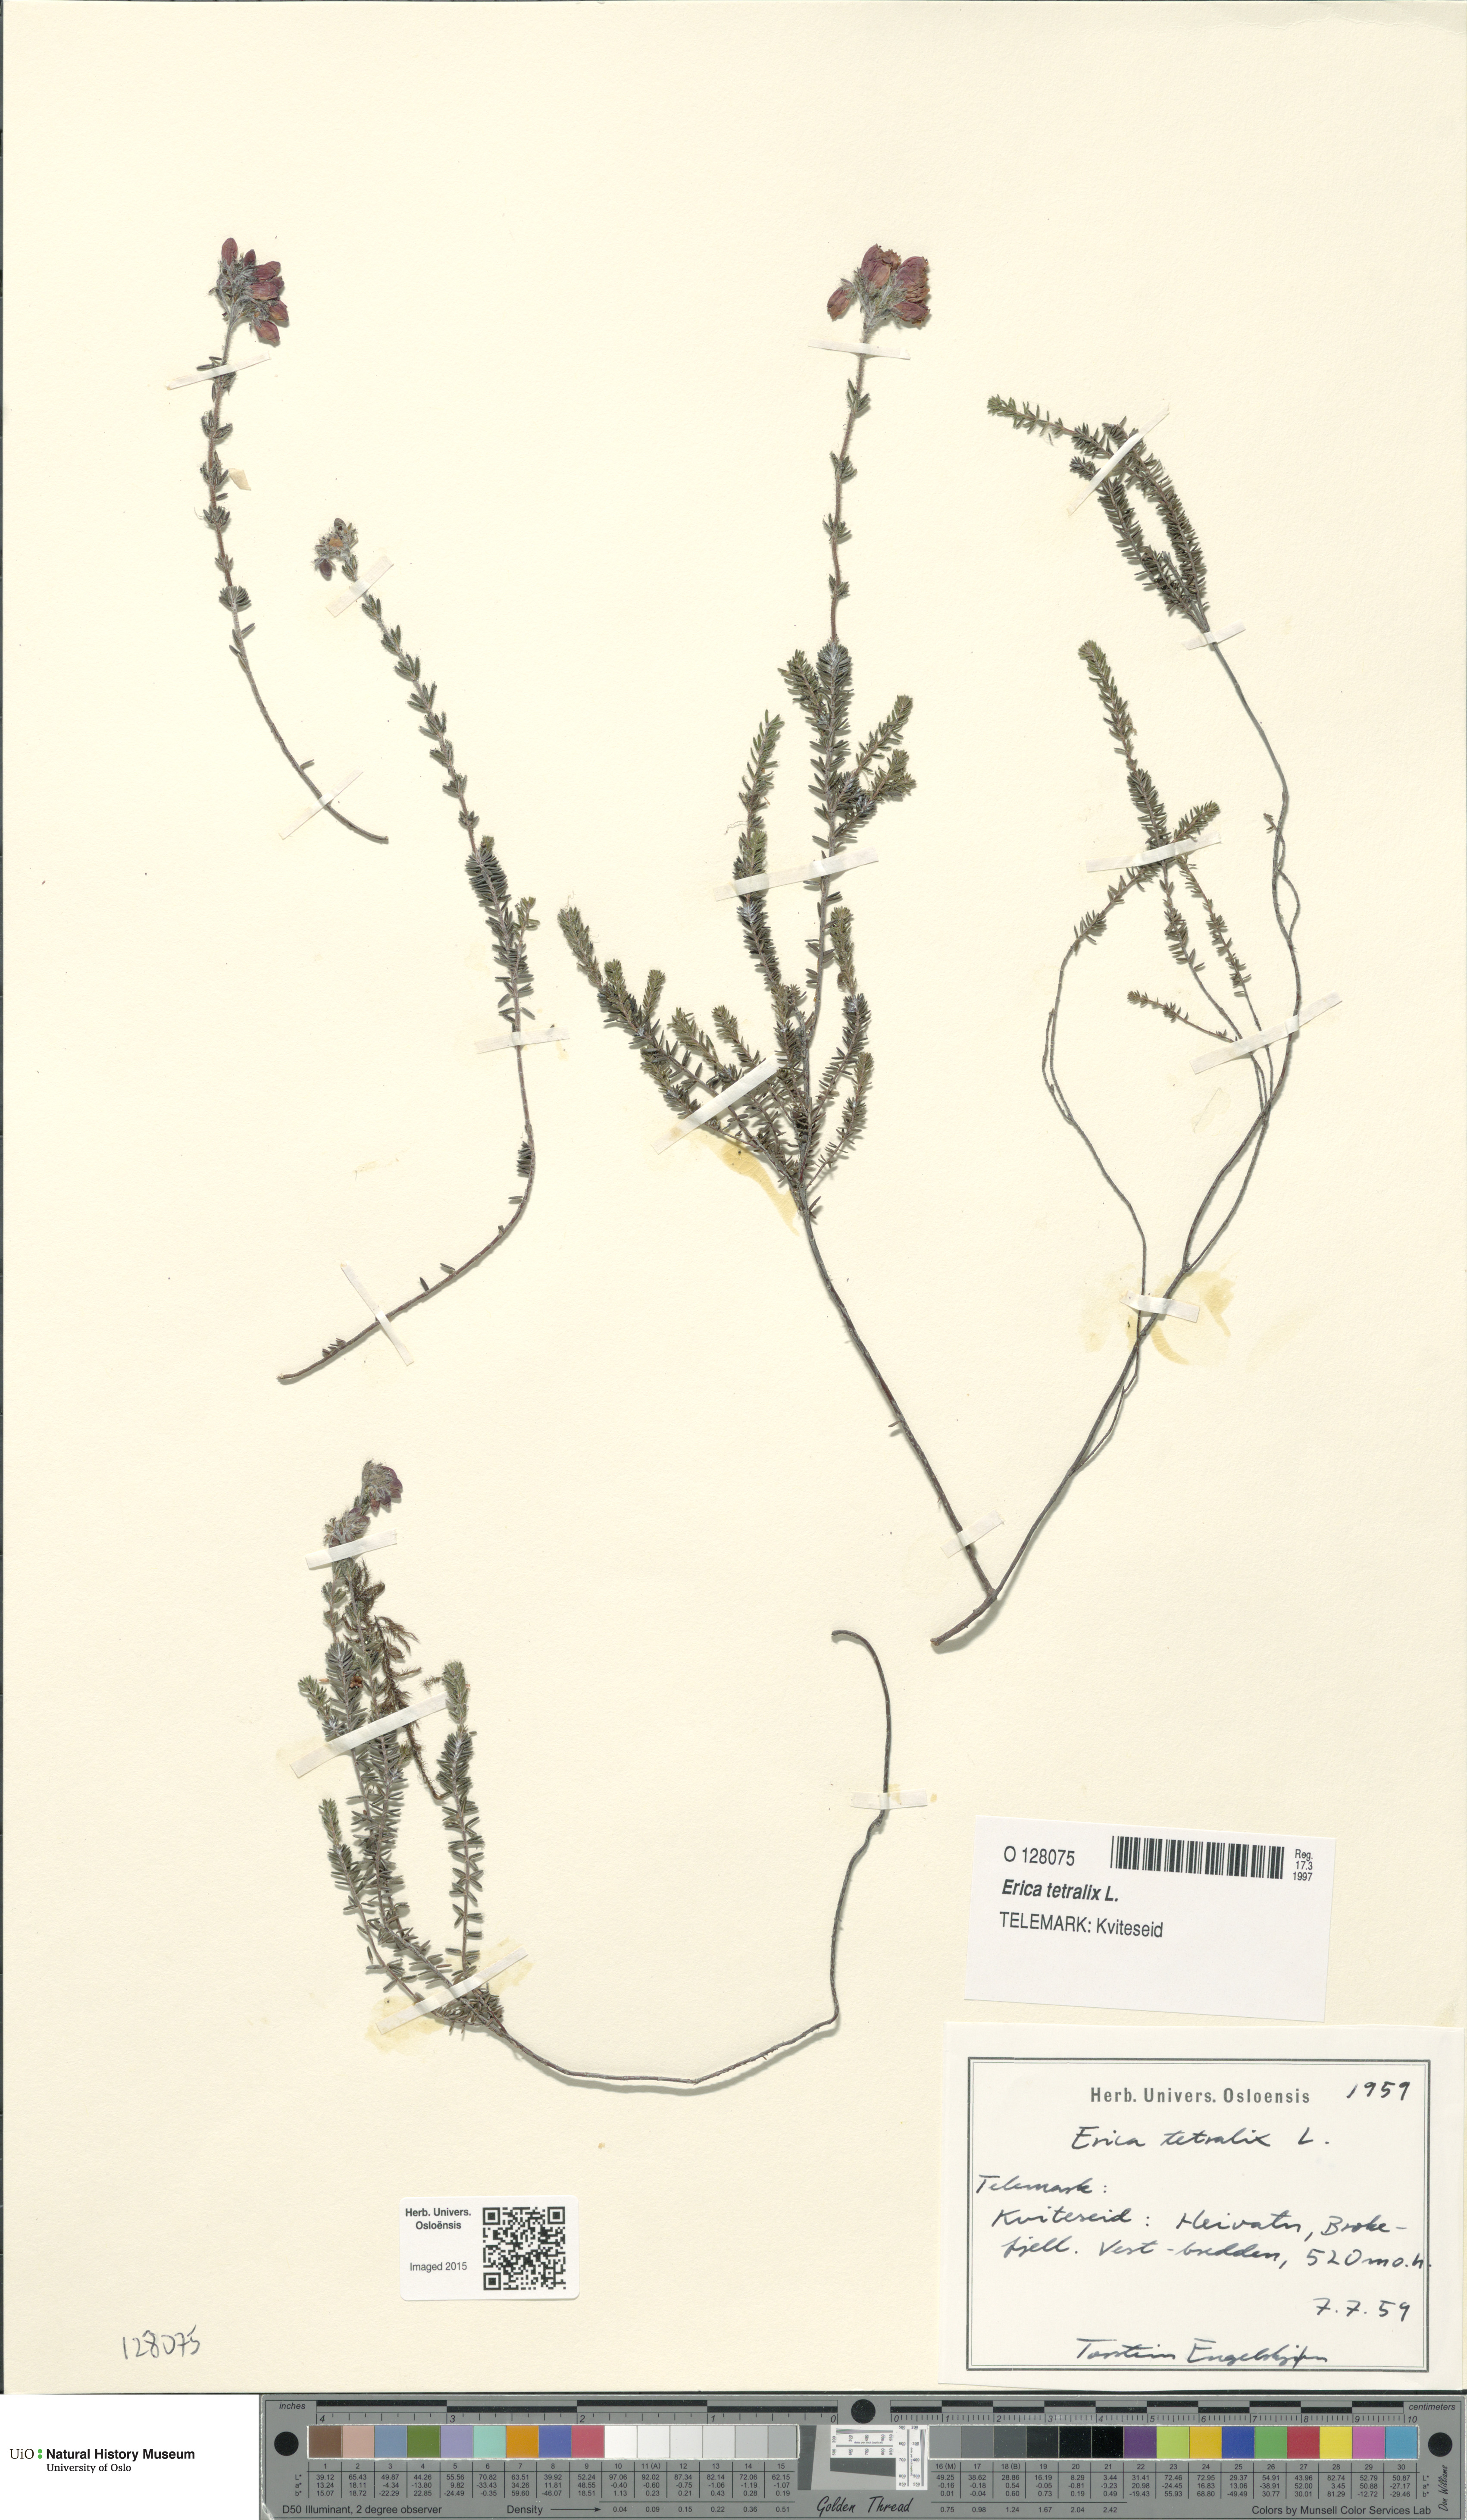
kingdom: Plantae
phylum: Tracheophyta
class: Magnoliopsida
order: Ericales
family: Ericaceae
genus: Erica
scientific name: Erica tetralix
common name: Cross-leaved heath
